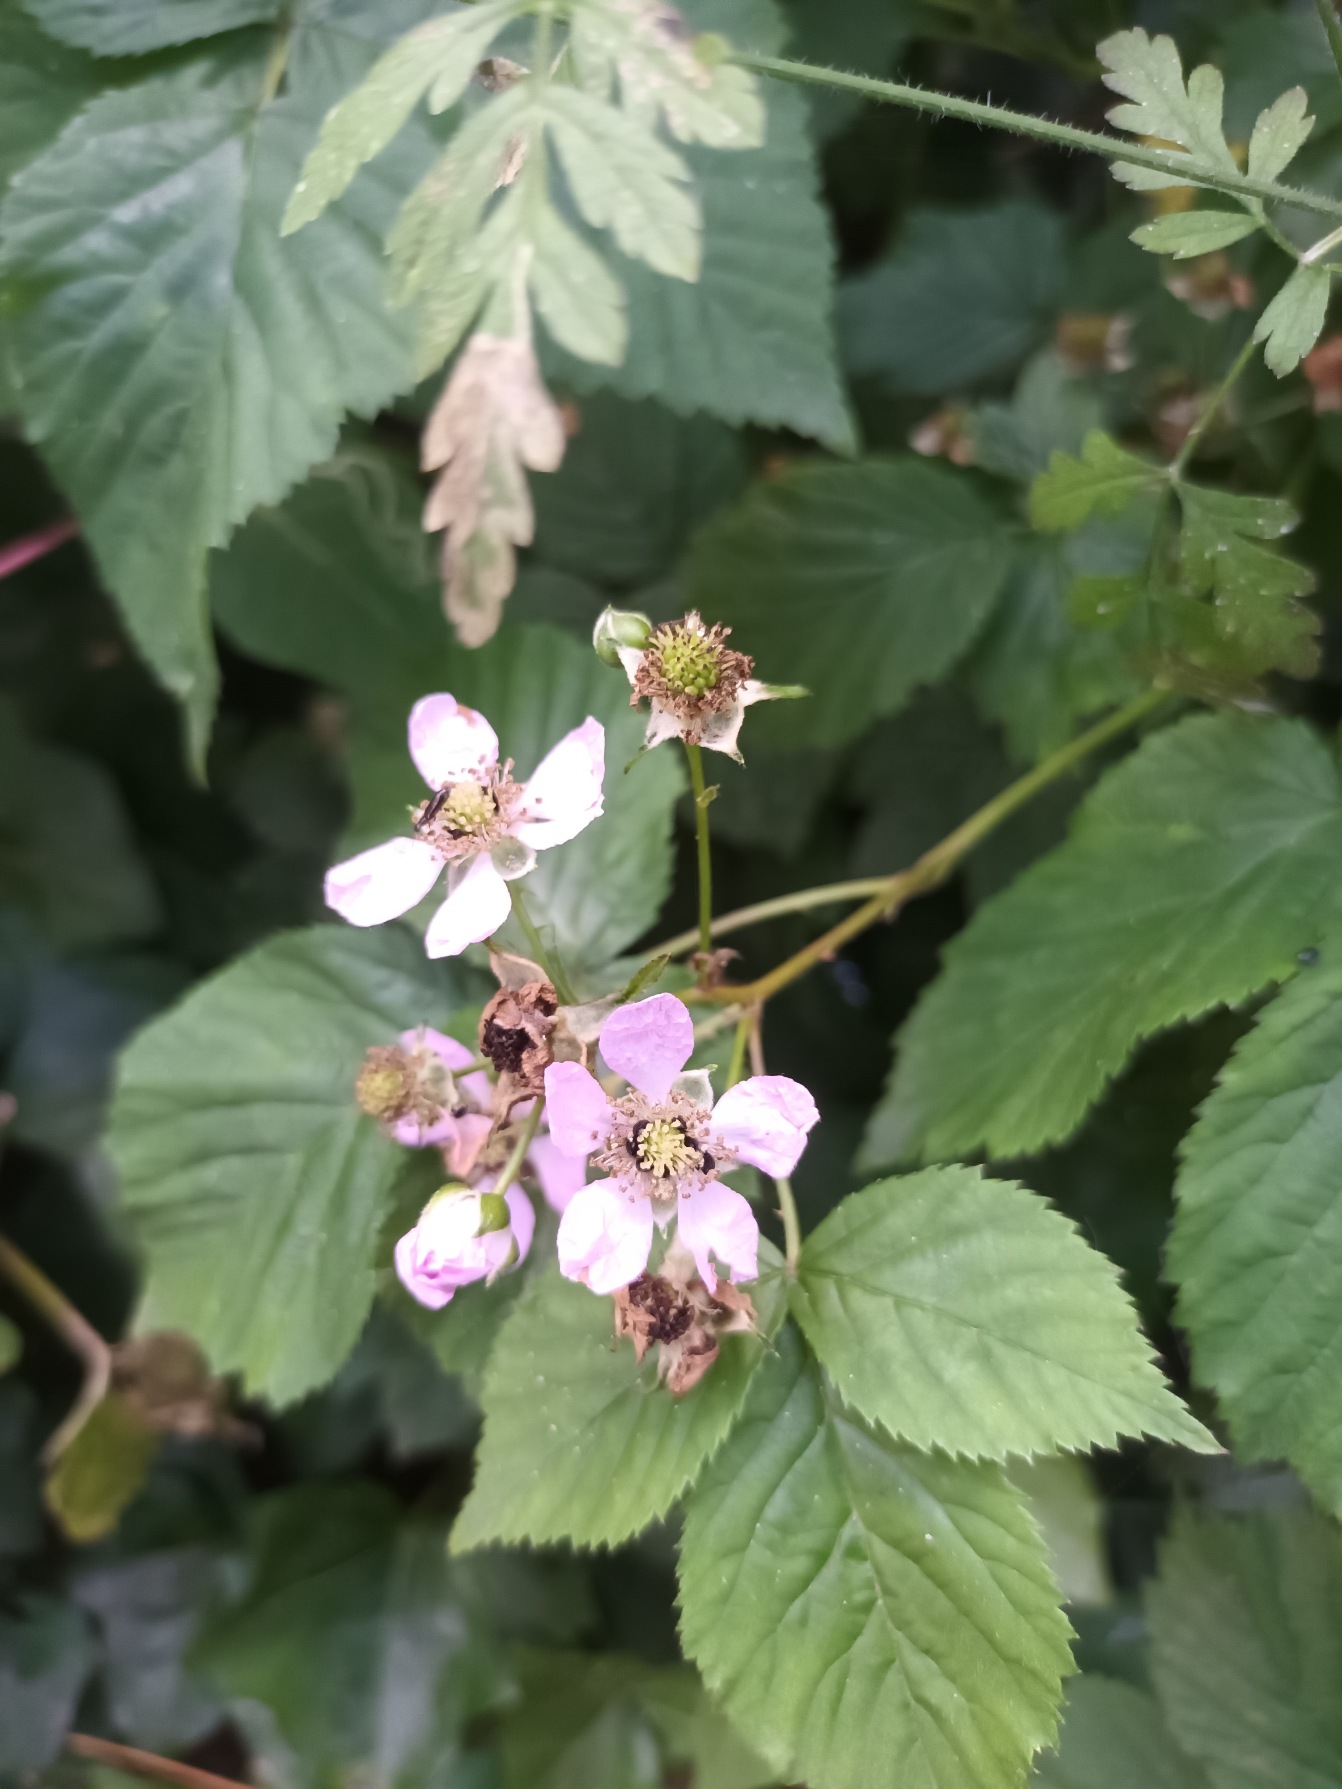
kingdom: Plantae
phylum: Tracheophyta
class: Magnoliopsida
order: Rosales
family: Rosaceae
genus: Rubus
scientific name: Rubus plicatus
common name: Almindelig brombær
